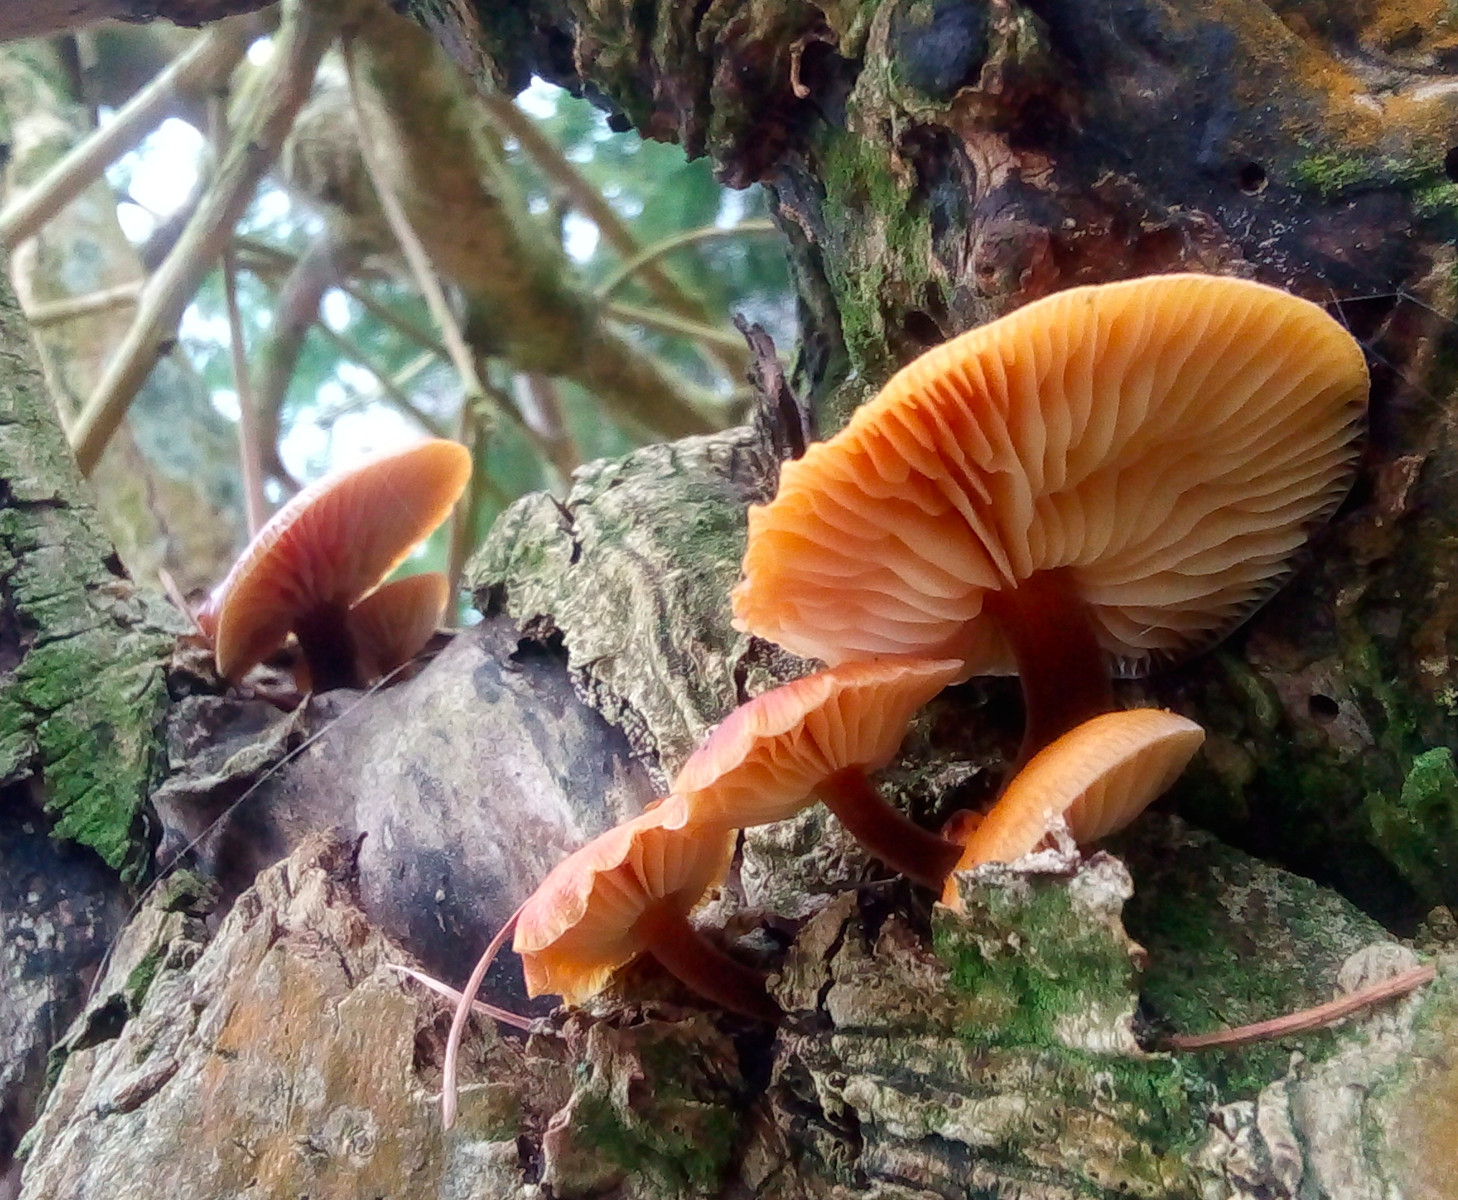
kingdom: Fungi
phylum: Basidiomycota
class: Agaricomycetes
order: Agaricales
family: Physalacriaceae
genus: Flammulina
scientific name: Flammulina velutipes
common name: gul fløjlsfod
